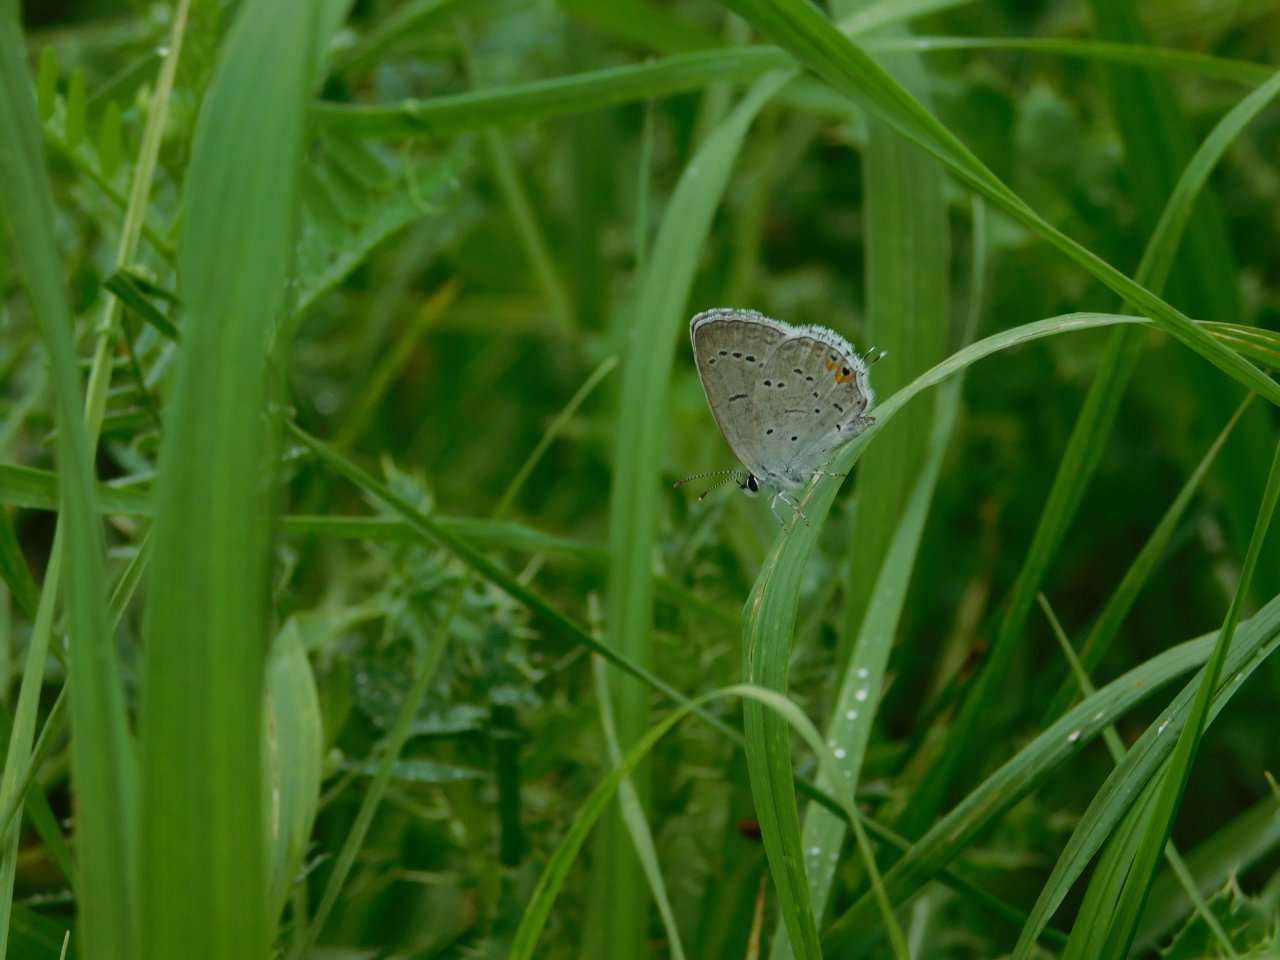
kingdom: Animalia
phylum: Arthropoda
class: Insecta
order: Lepidoptera
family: Lycaenidae
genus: Elkalyce
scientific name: Elkalyce comyntas
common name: Eastern Tailed-Blue
